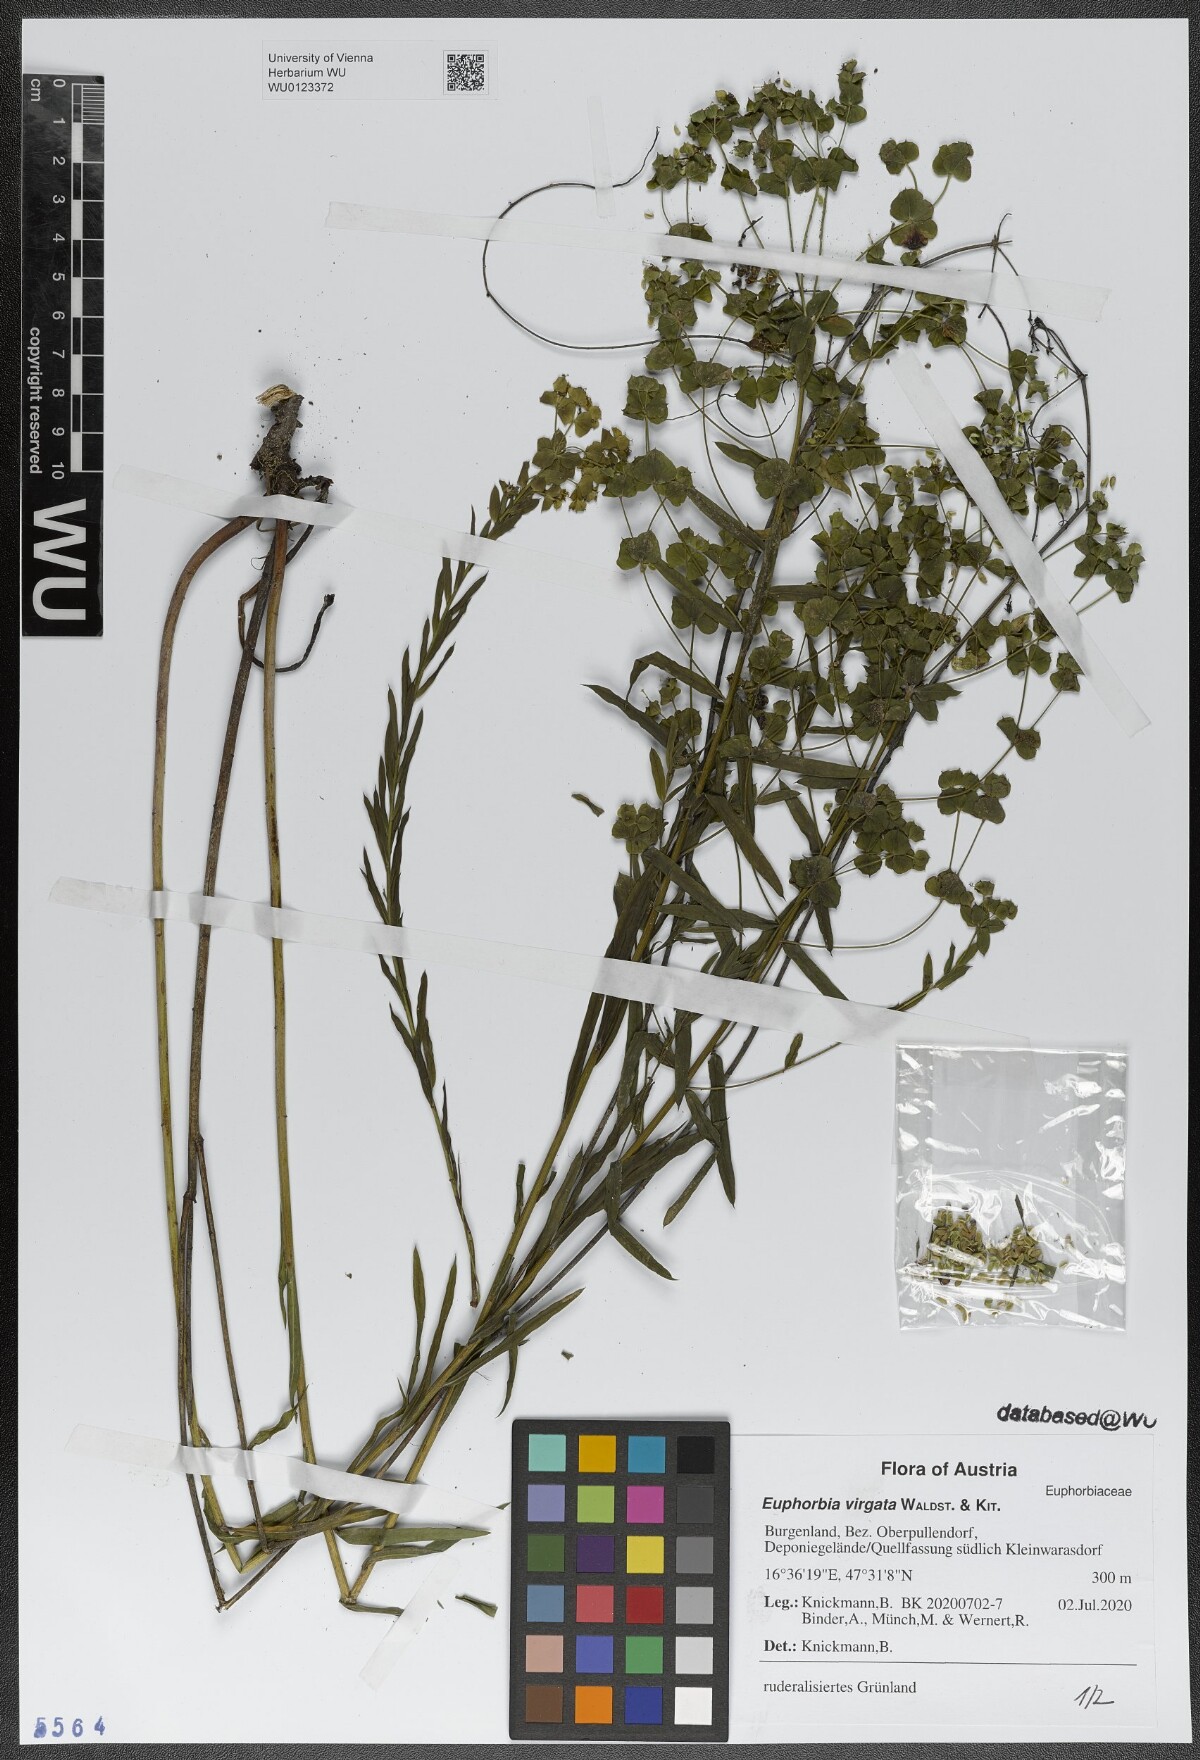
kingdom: Plantae
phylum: Tracheophyta
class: Magnoliopsida
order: Malpighiales
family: Euphorbiaceae
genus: Euphorbia
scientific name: Euphorbia virgata
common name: Leafy spurge
